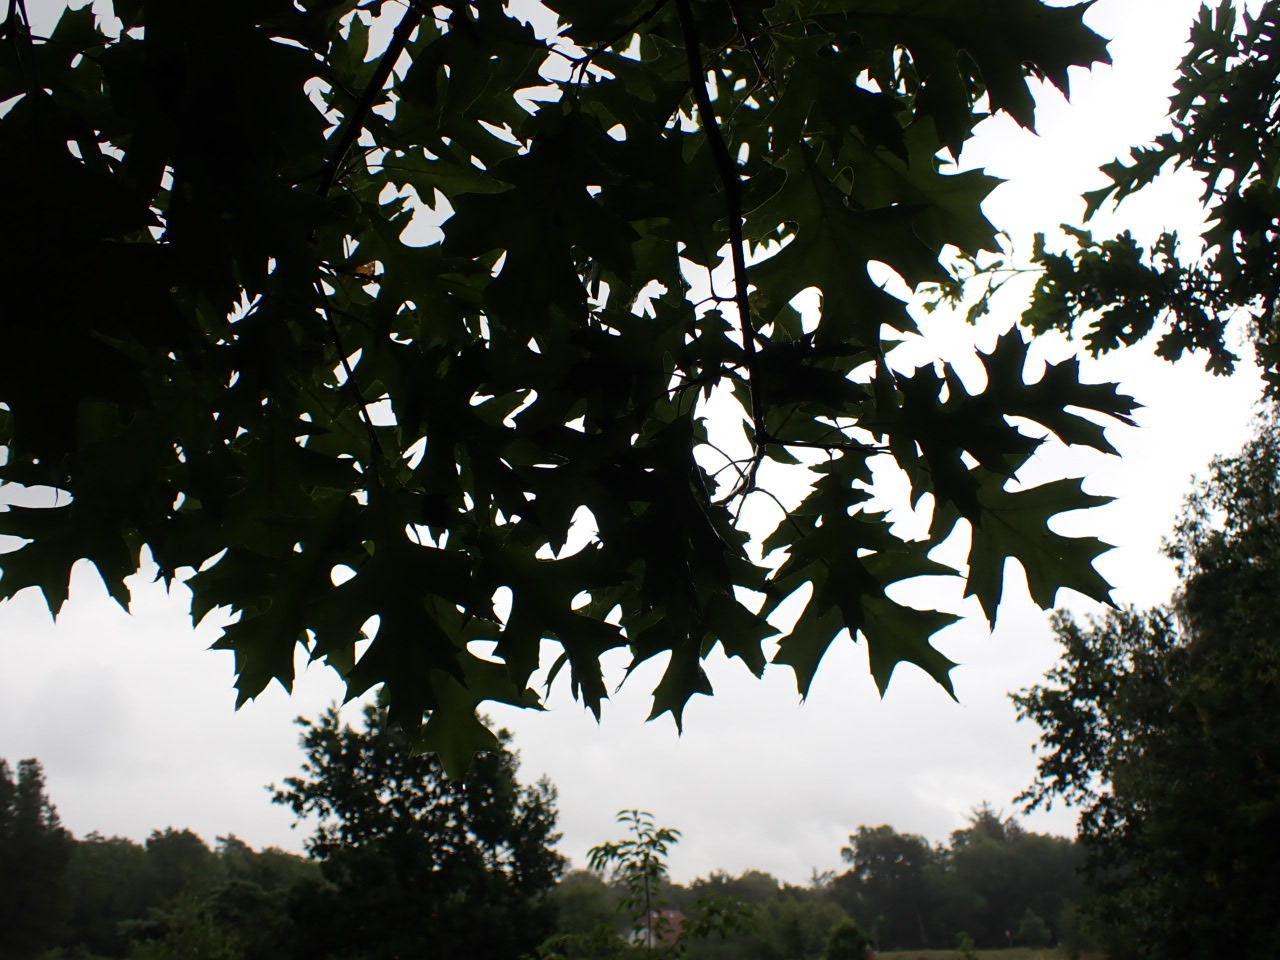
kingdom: Plantae
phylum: Tracheophyta
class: Magnoliopsida
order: Fagales
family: Fagaceae
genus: Quercus
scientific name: Quercus rubra
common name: Rød-eg
